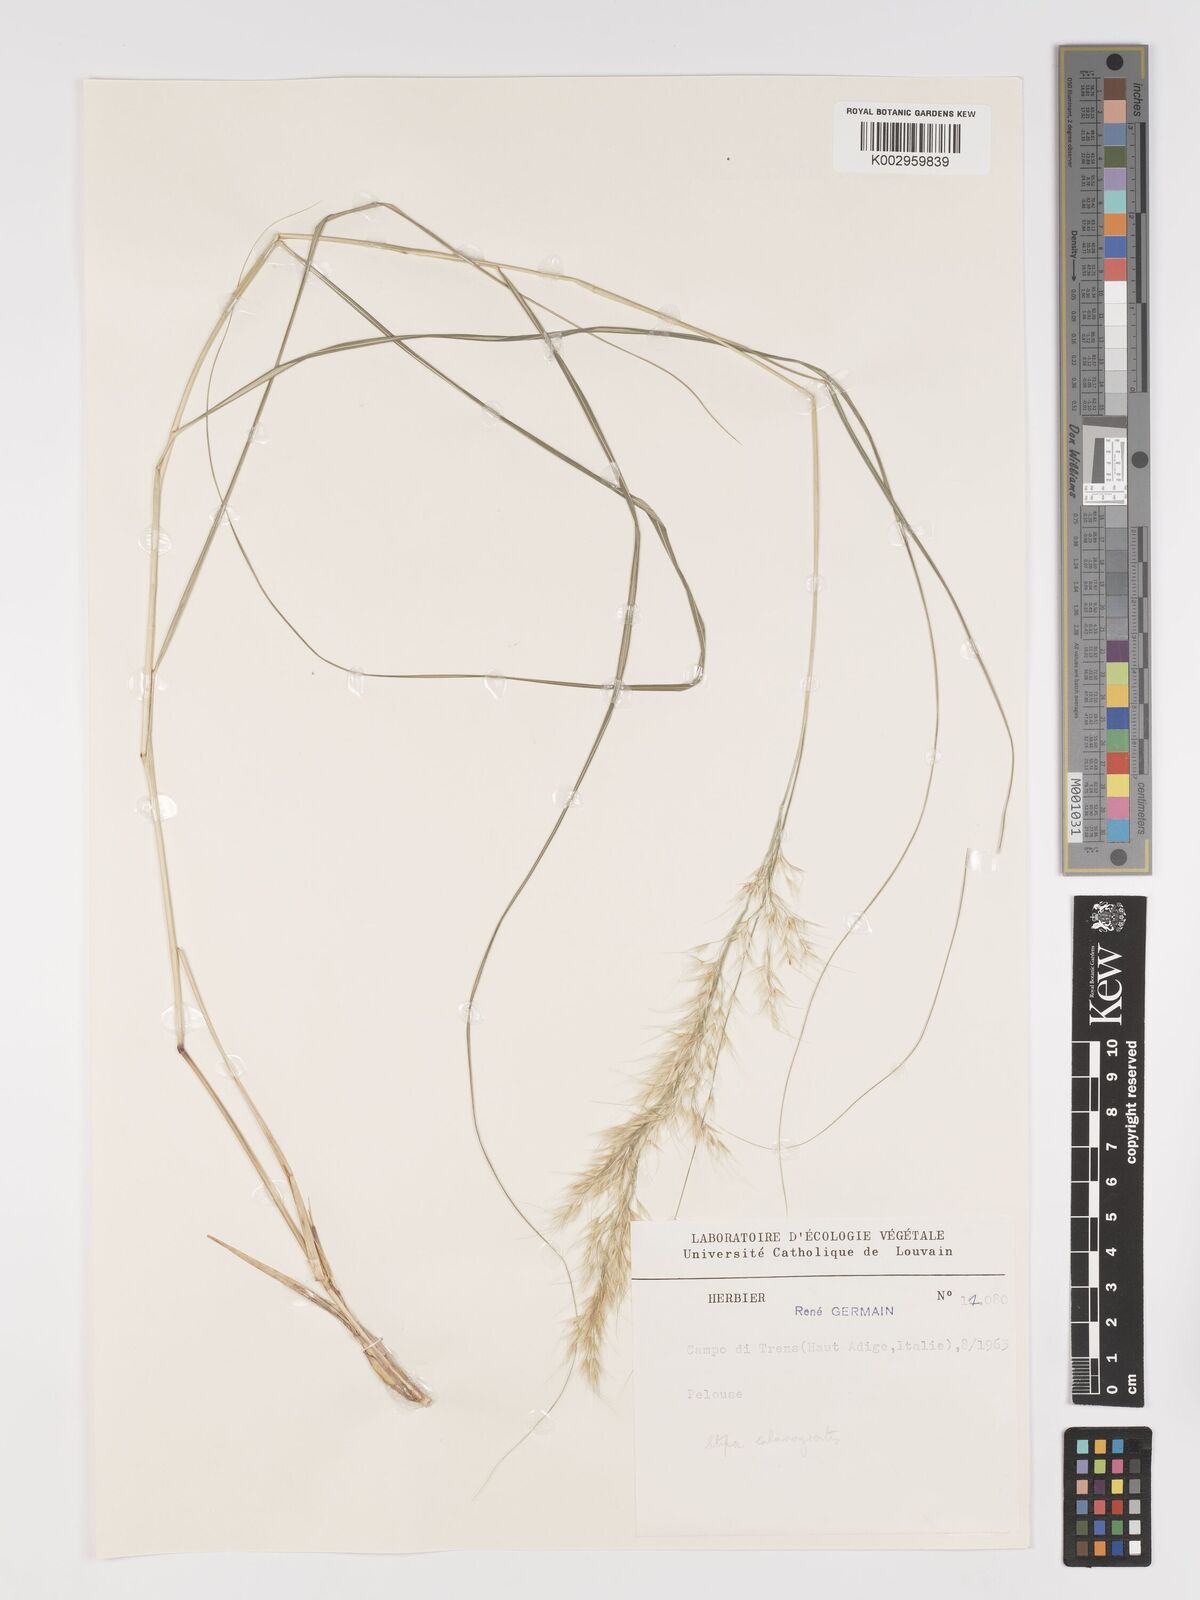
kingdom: Plantae
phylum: Tracheophyta
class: Liliopsida
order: Poales
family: Poaceae
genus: Achnatherum
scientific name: Achnatherum calamagrostis
